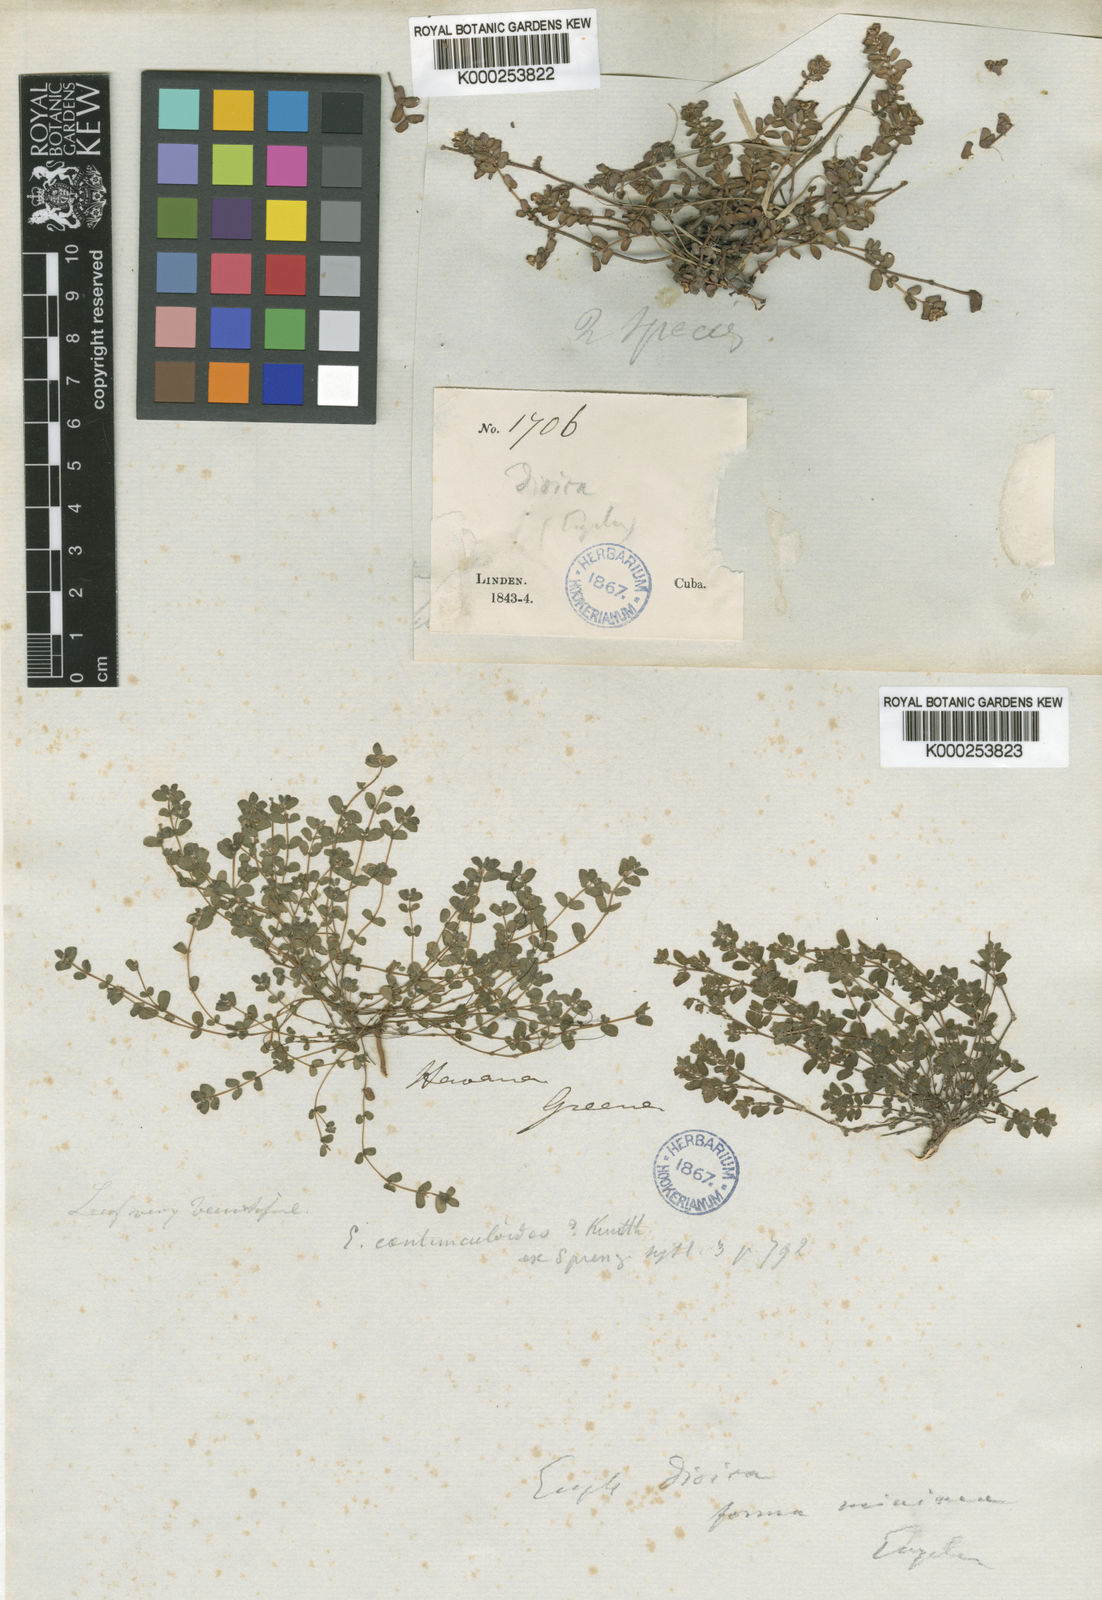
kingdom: Plantae
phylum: Tracheophyta
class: Magnoliopsida
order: Malpighiales
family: Euphorbiaceae
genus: Euphorbia
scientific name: Euphorbia adenoptera
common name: Southern florida sandmat
